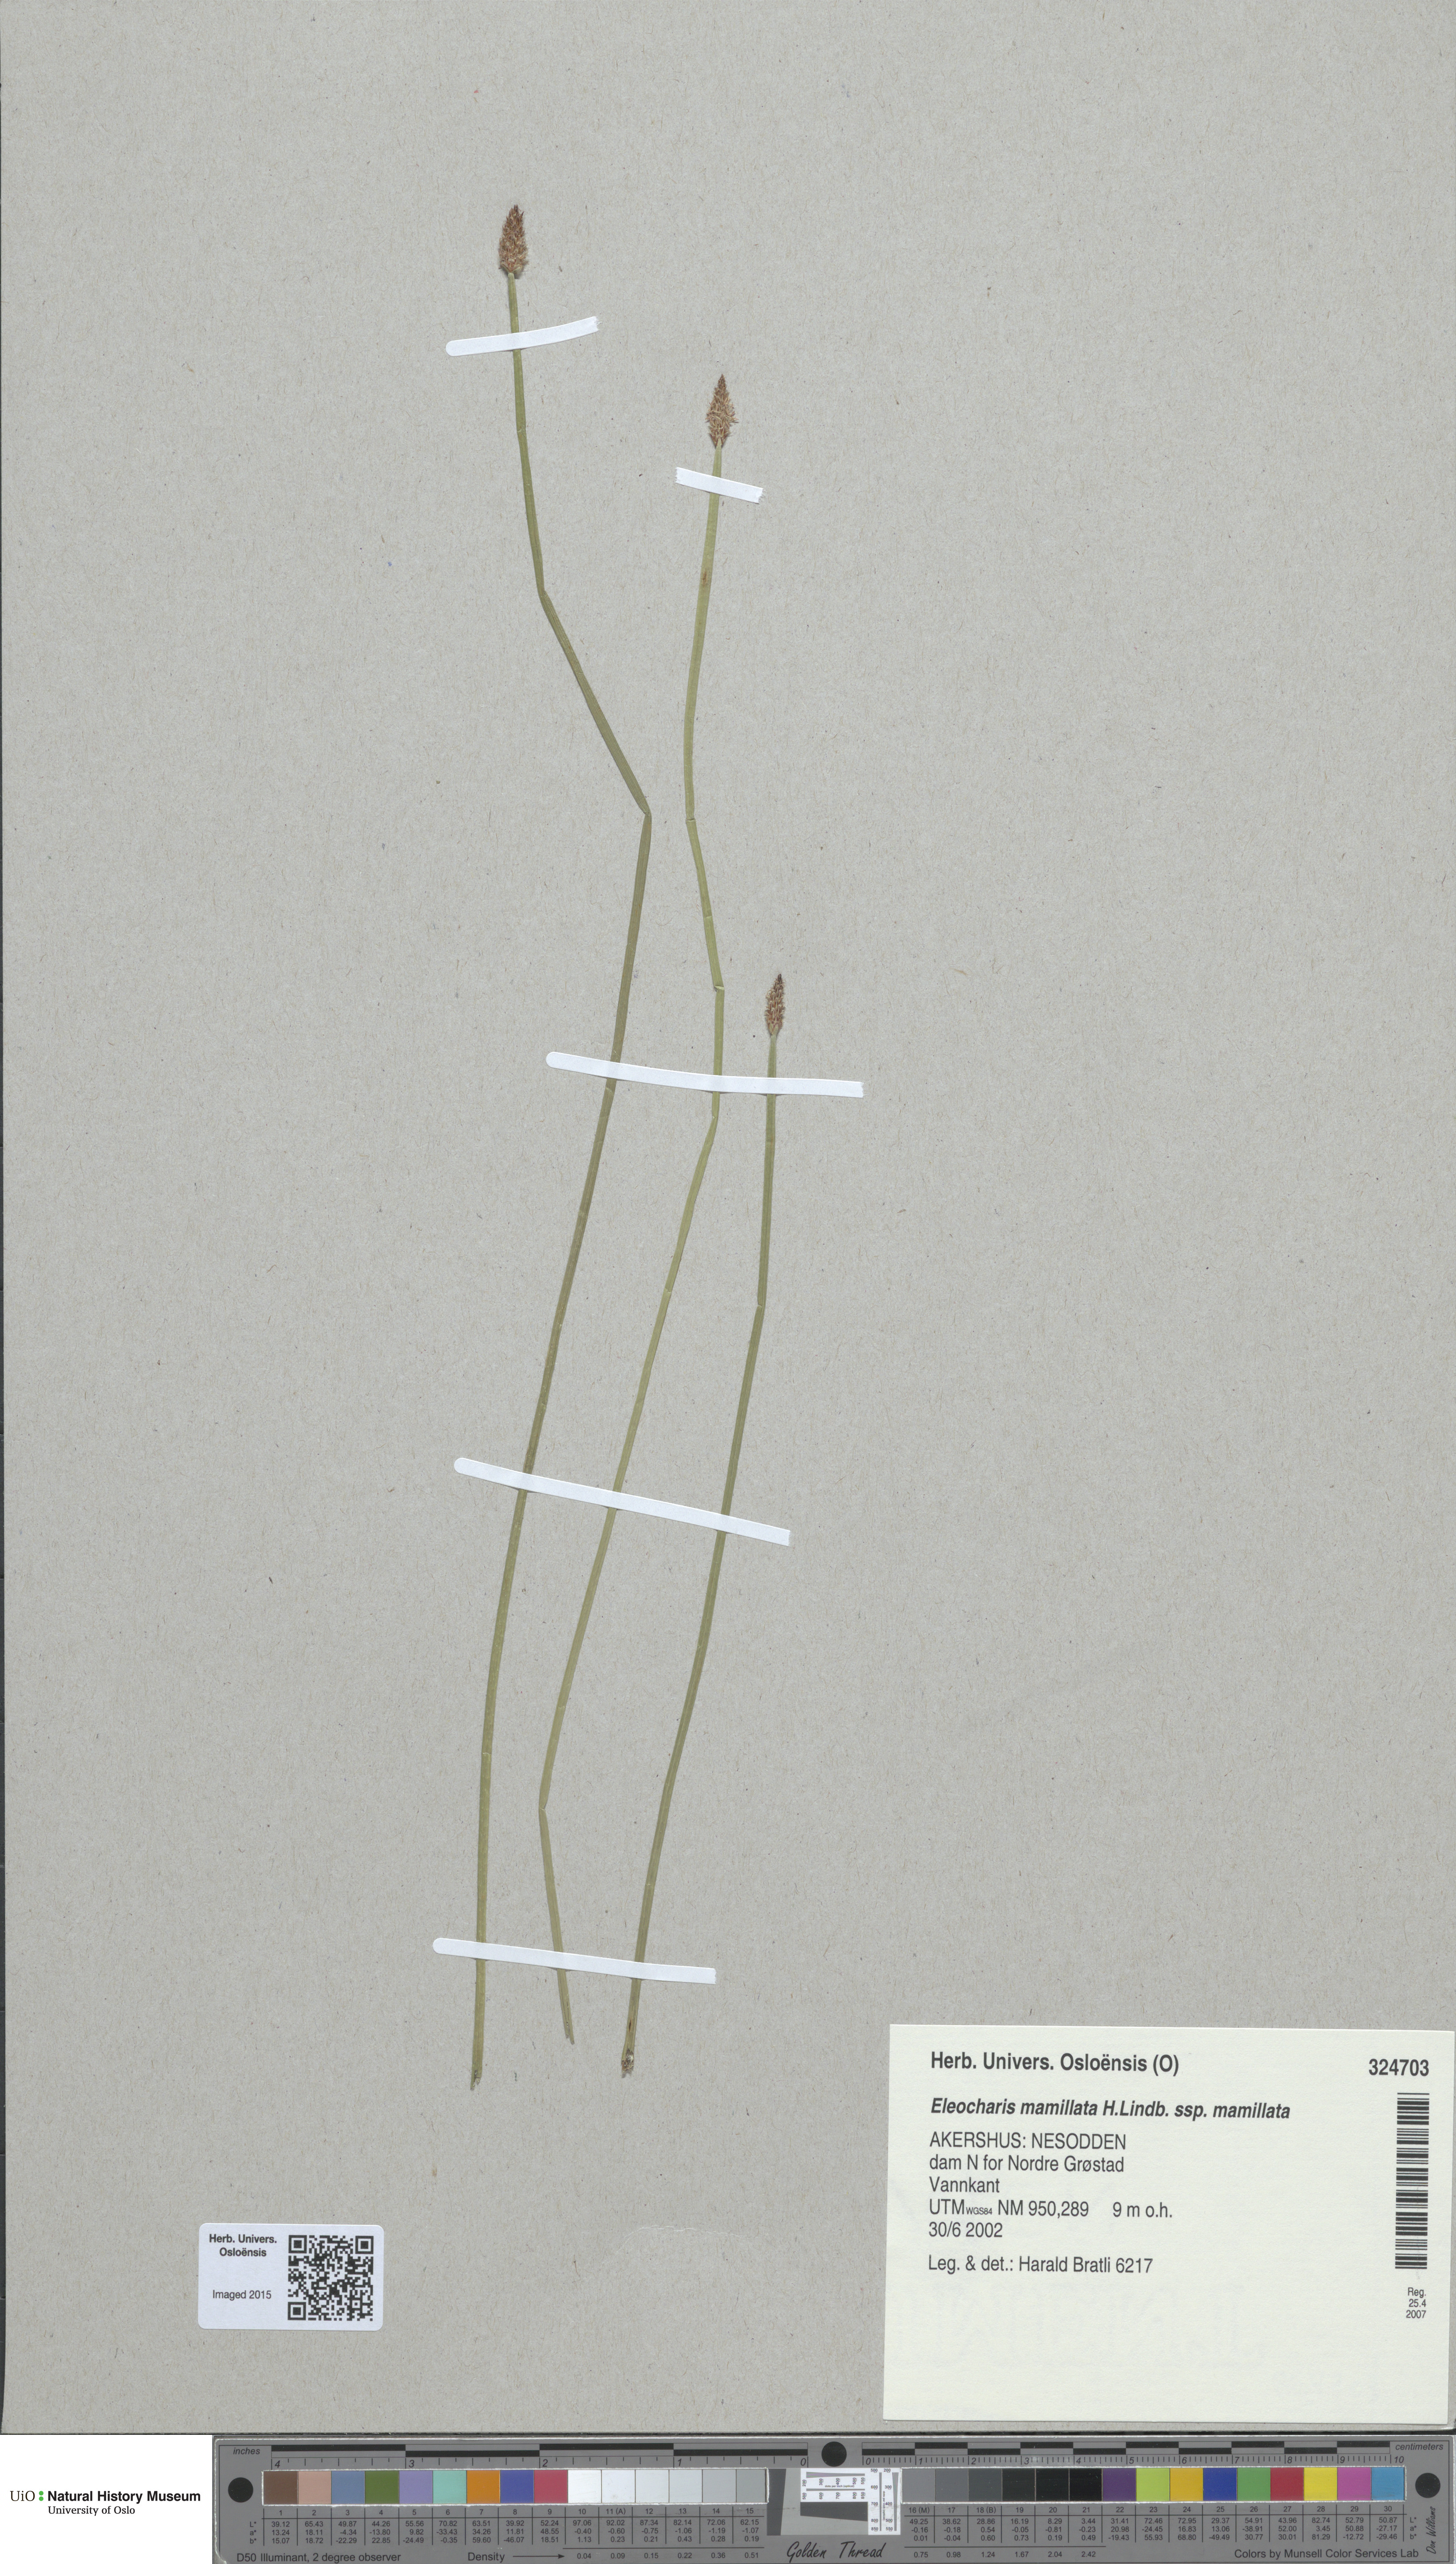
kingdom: Plantae
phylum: Tracheophyta
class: Liliopsida
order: Poales
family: Cyperaceae
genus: Eleocharis
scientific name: Eleocharis mamillata
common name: Northern spike-rush
